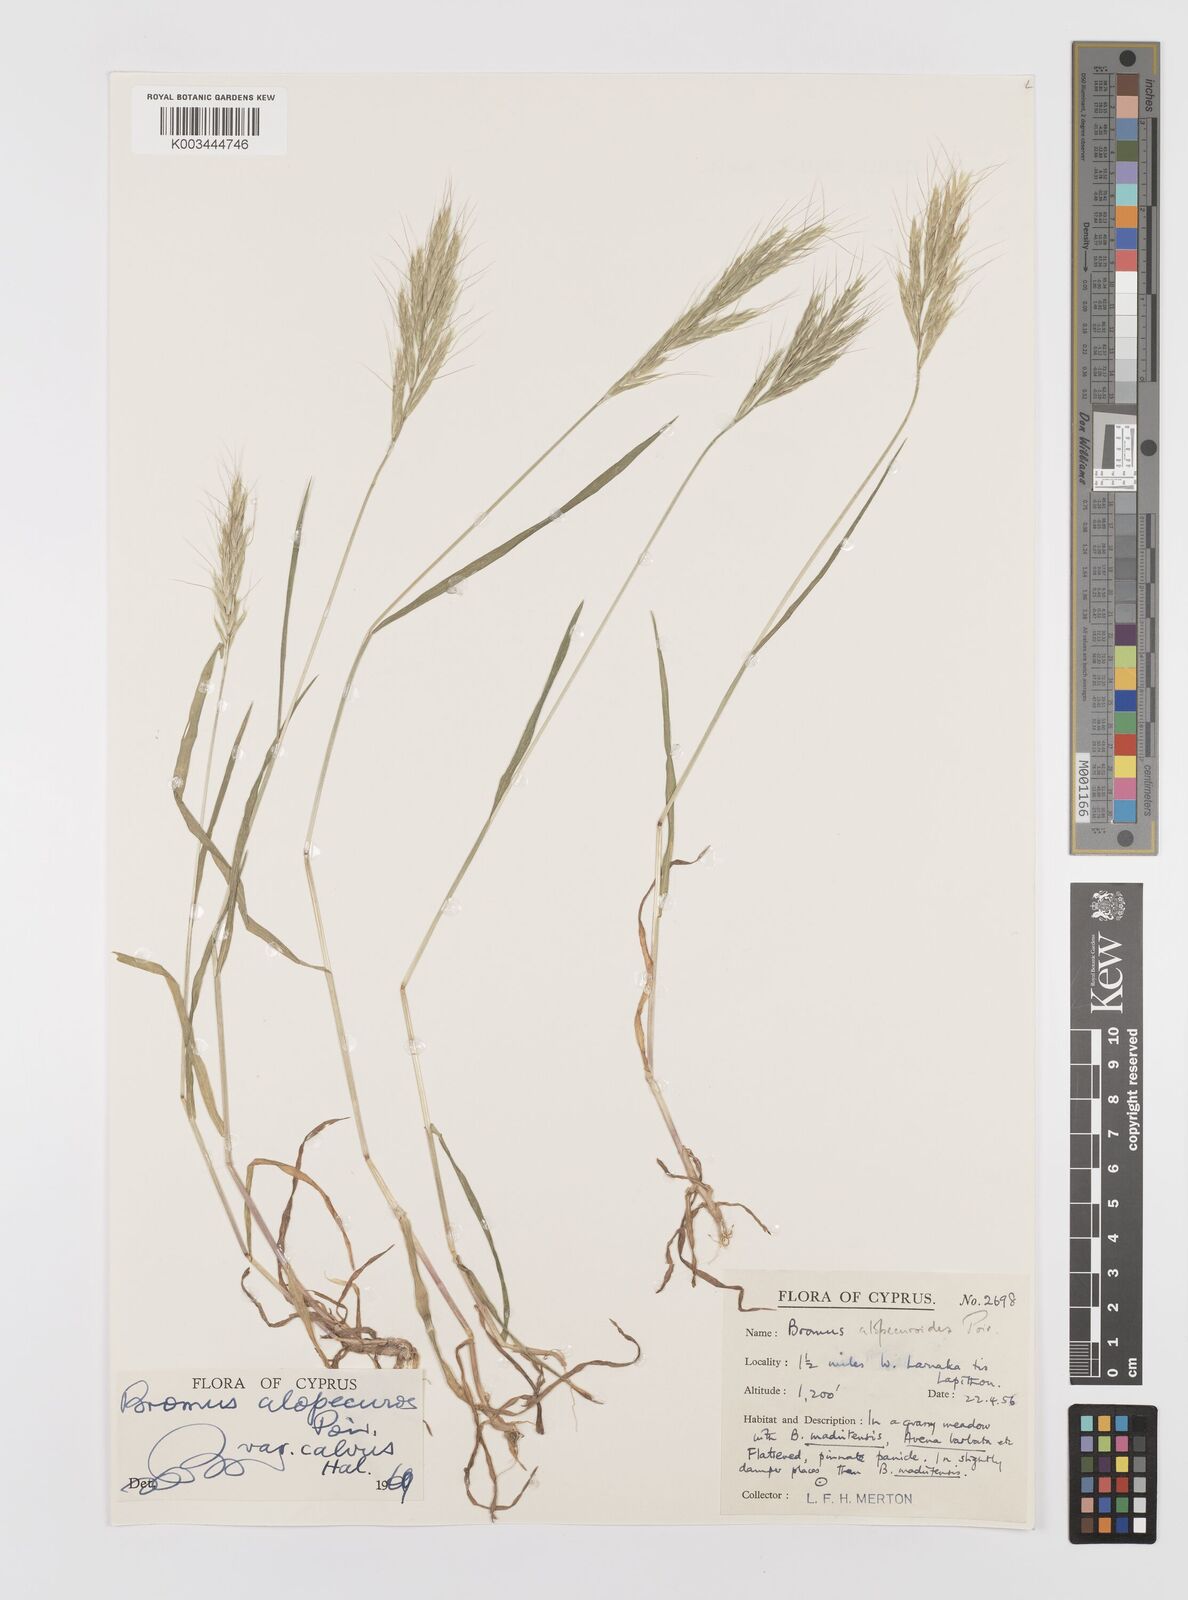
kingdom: Plantae
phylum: Tracheophyta
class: Liliopsida
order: Poales
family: Poaceae
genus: Bromus
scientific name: Bromus alopecuros
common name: Weedy brome
